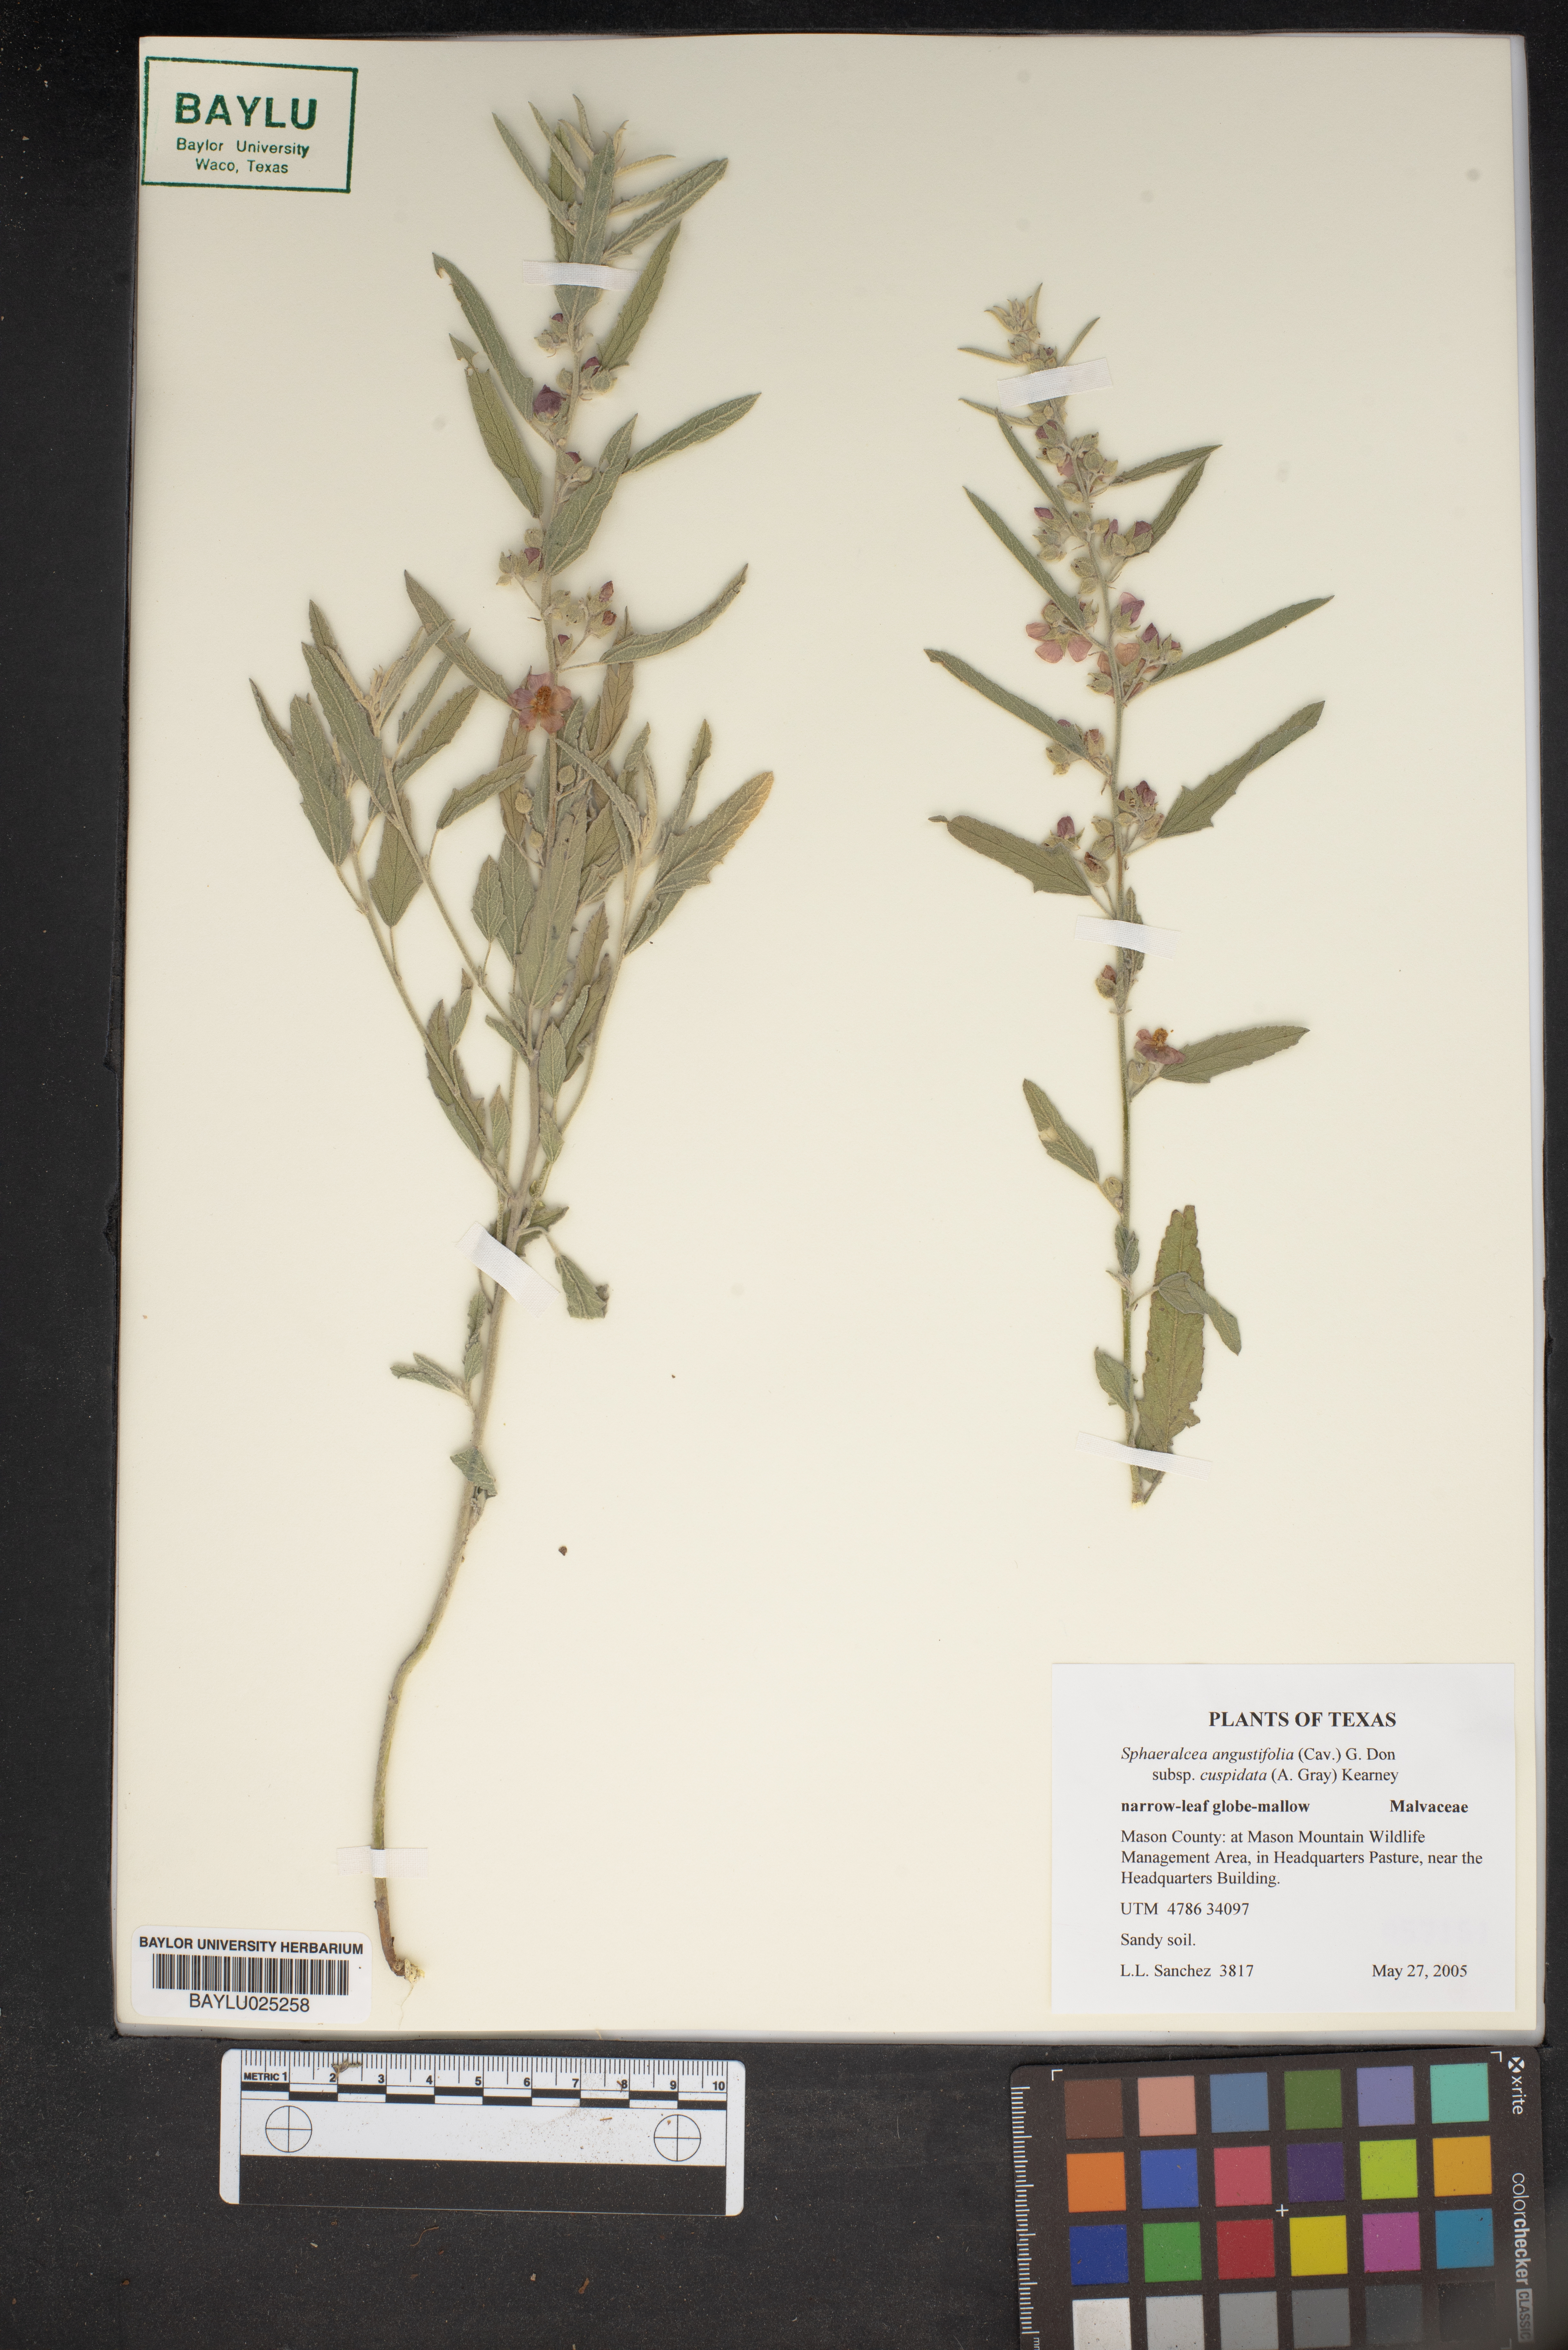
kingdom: Plantae
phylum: Tracheophyta
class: Magnoliopsida
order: Malvales
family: Malvaceae
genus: Sphaeralcea
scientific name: Sphaeralcea angustifolia
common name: Copper globe-mallow
